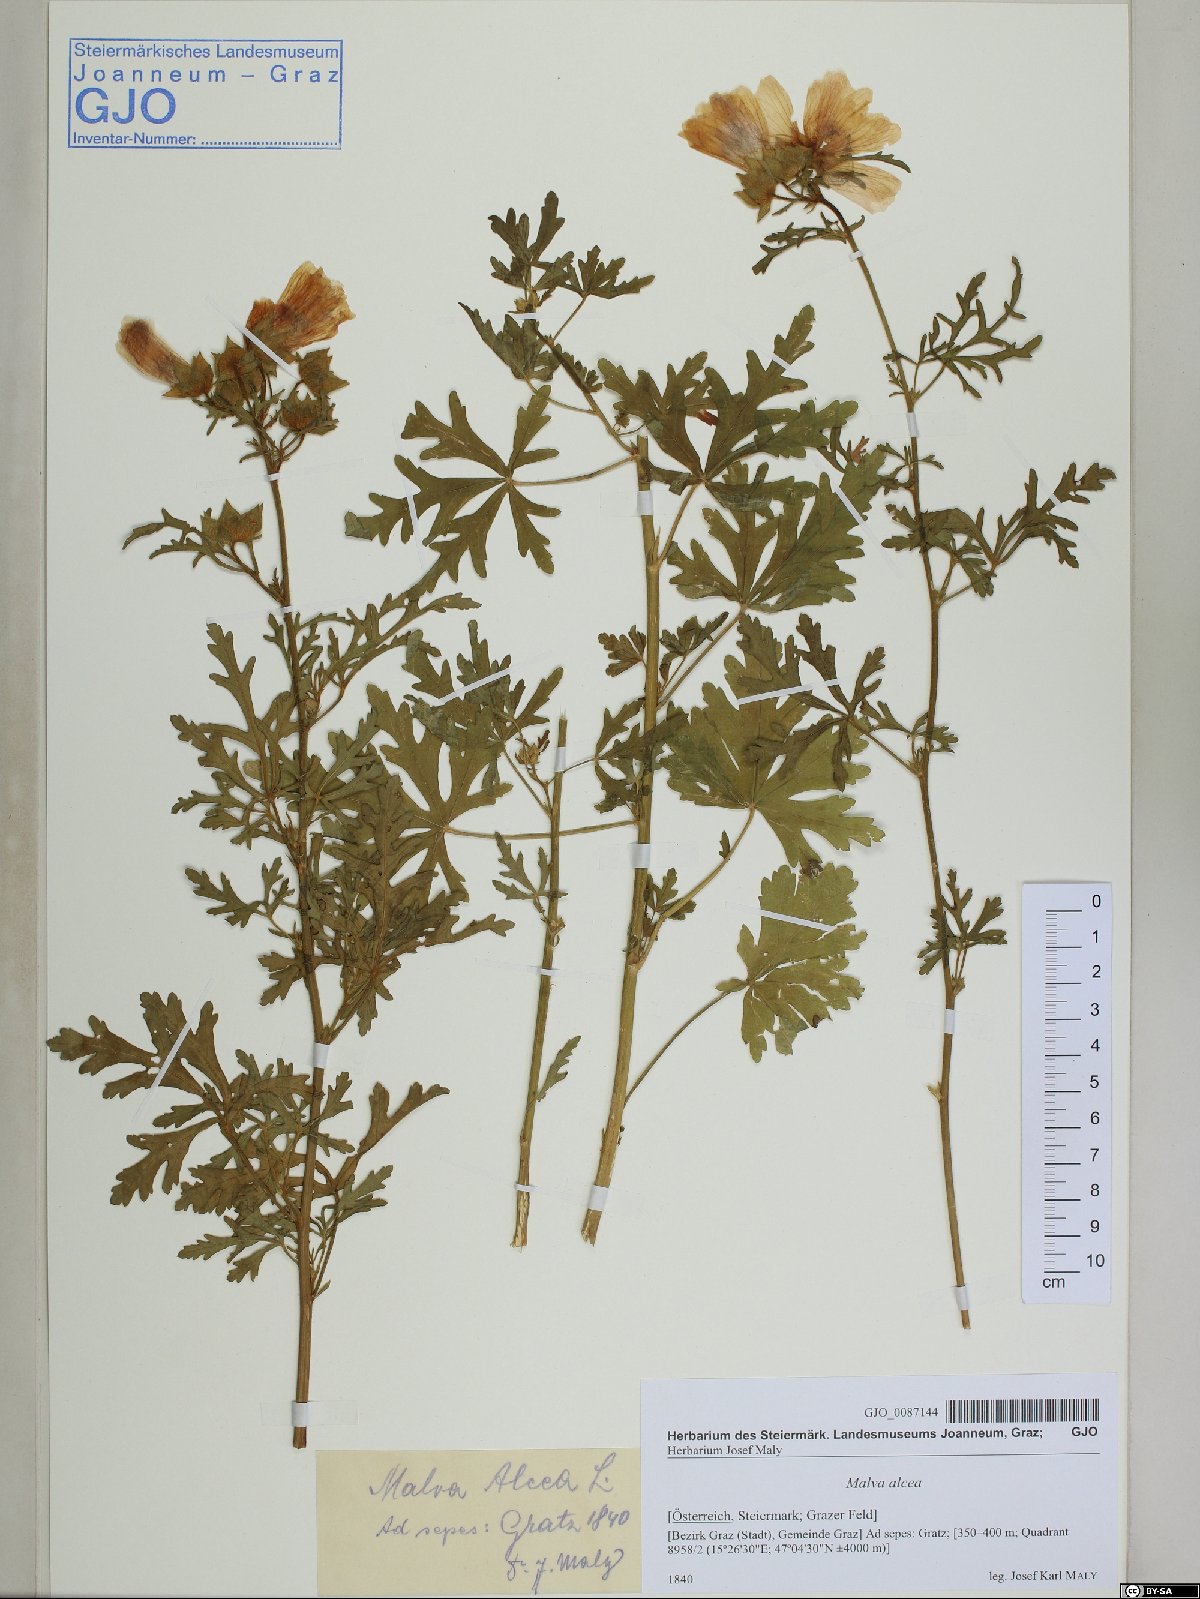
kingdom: Plantae
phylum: Tracheophyta
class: Magnoliopsida
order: Malvales
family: Malvaceae
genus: Malva
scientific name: Malva alcea
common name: Greater musk-mallow
